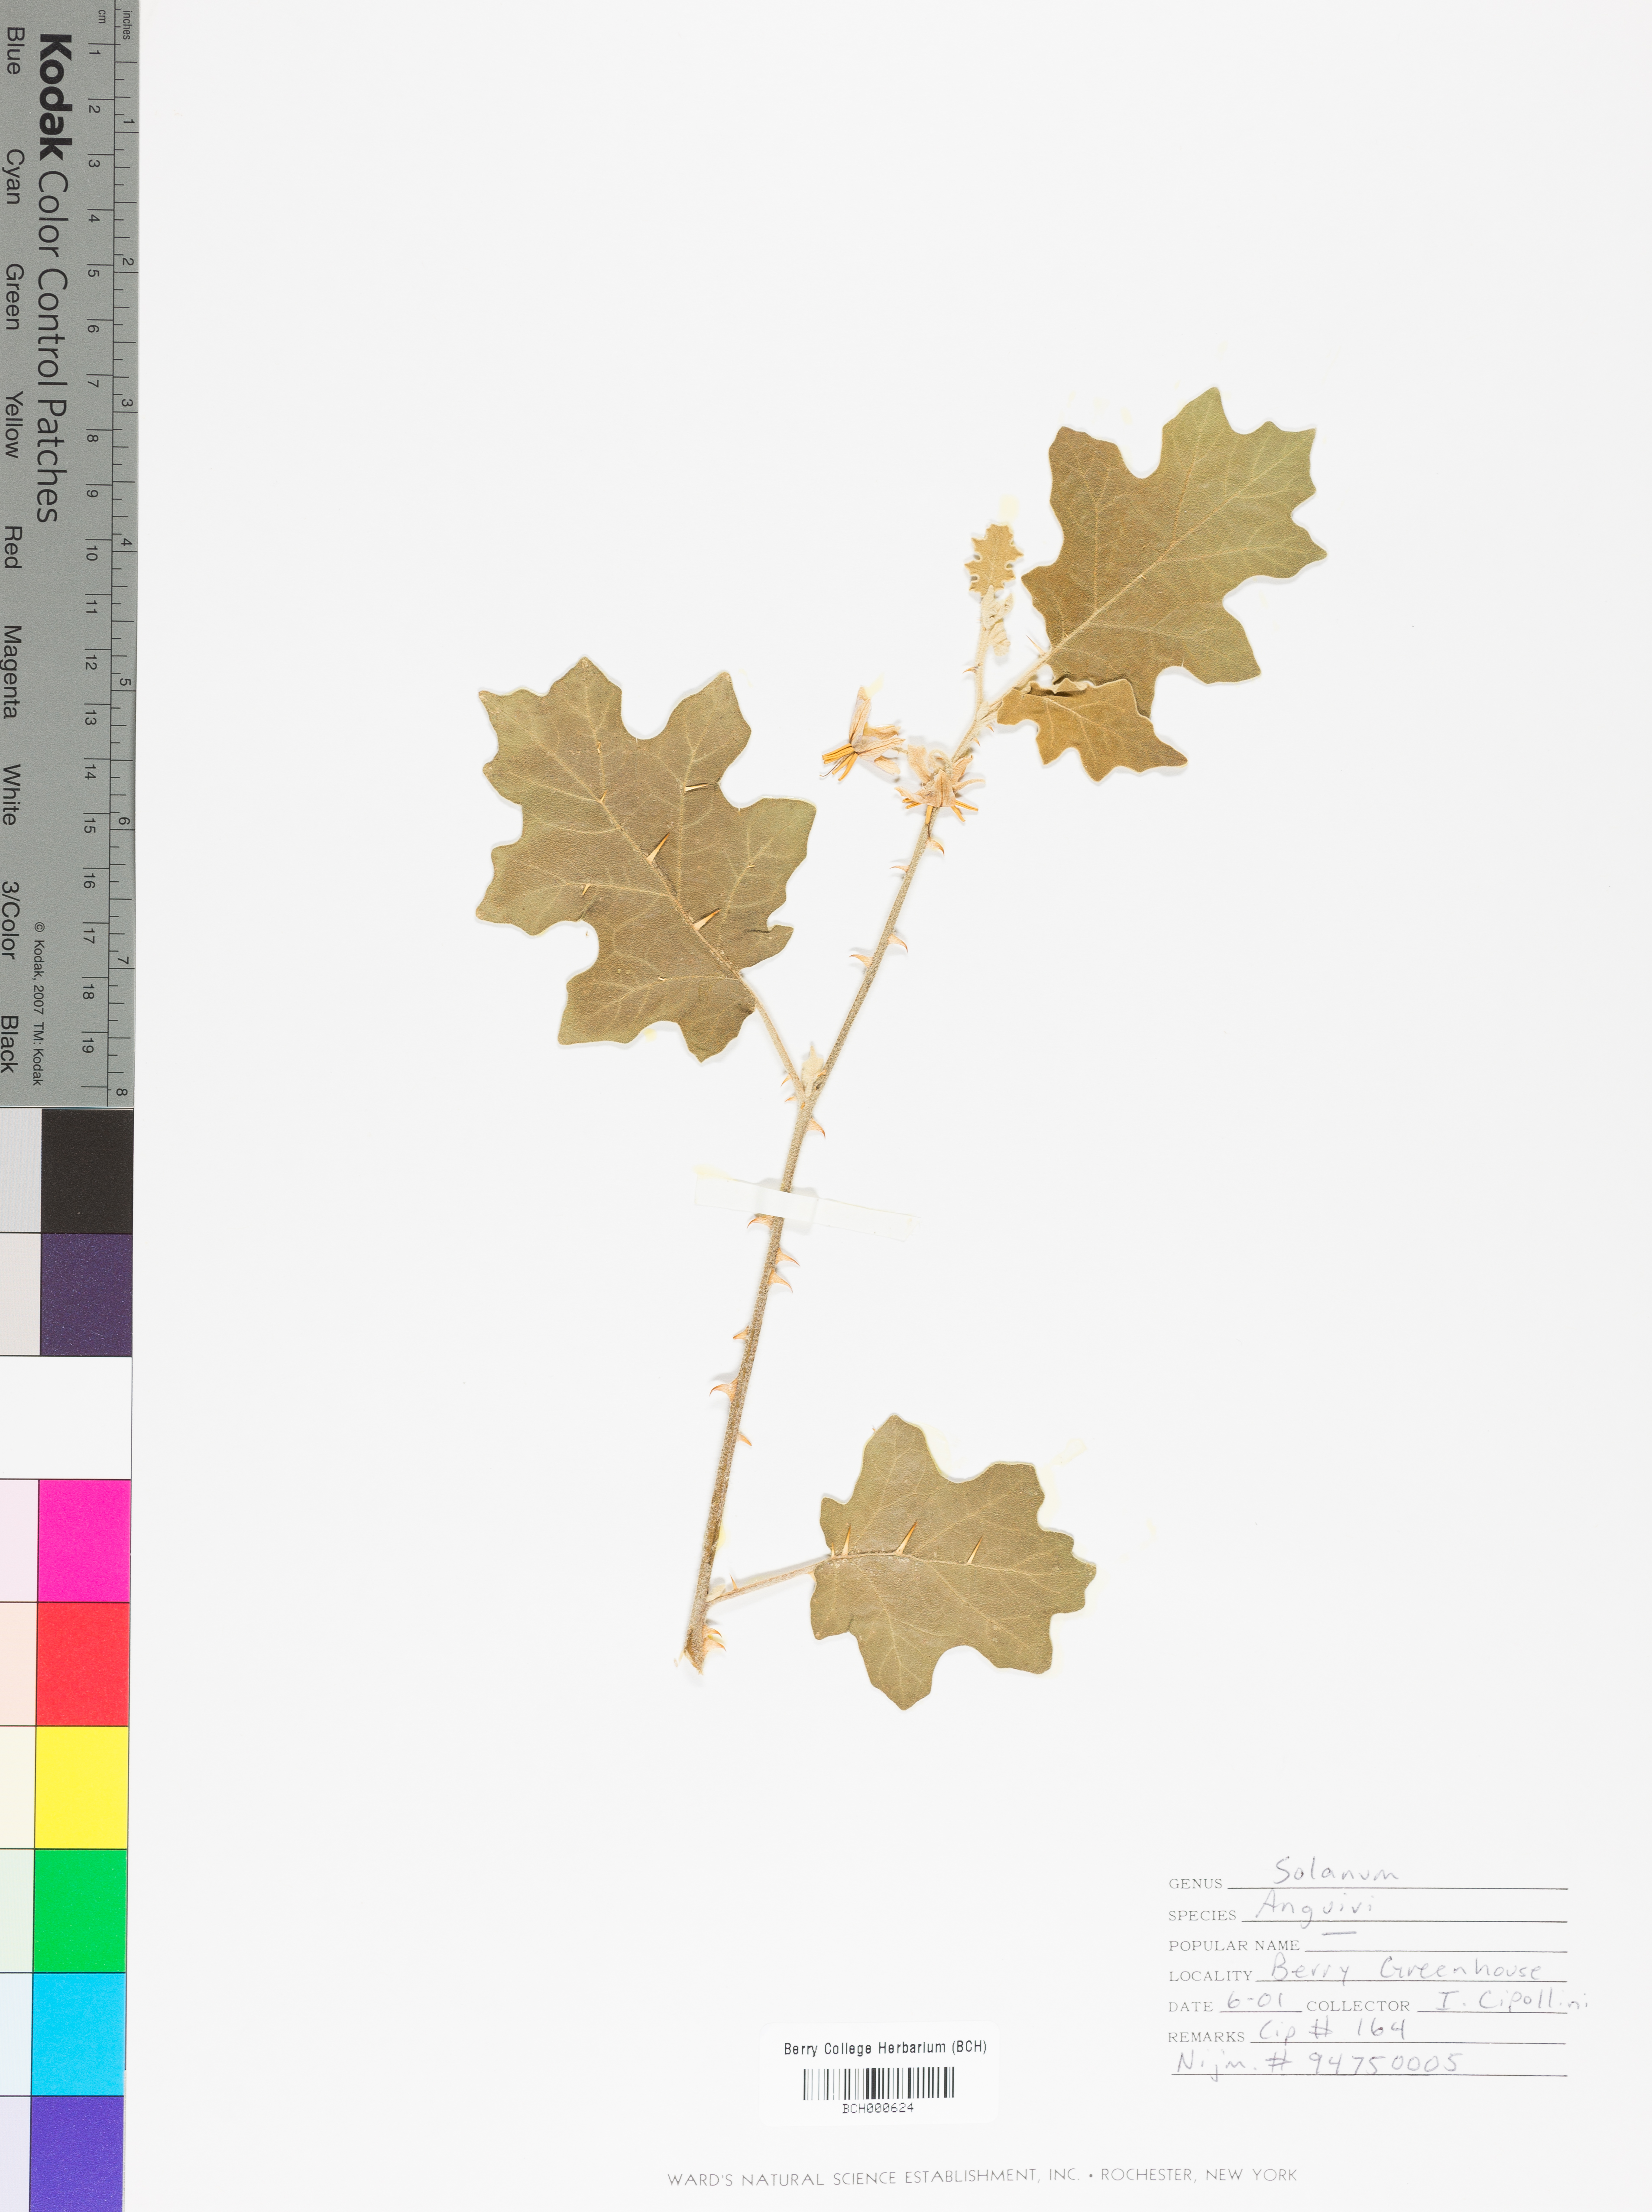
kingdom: Plantae
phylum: Tracheophyta
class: Magnoliopsida
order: Solanales
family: Solanaceae
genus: Solanum
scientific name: Solanum anguivi
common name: Forest bitterberry
